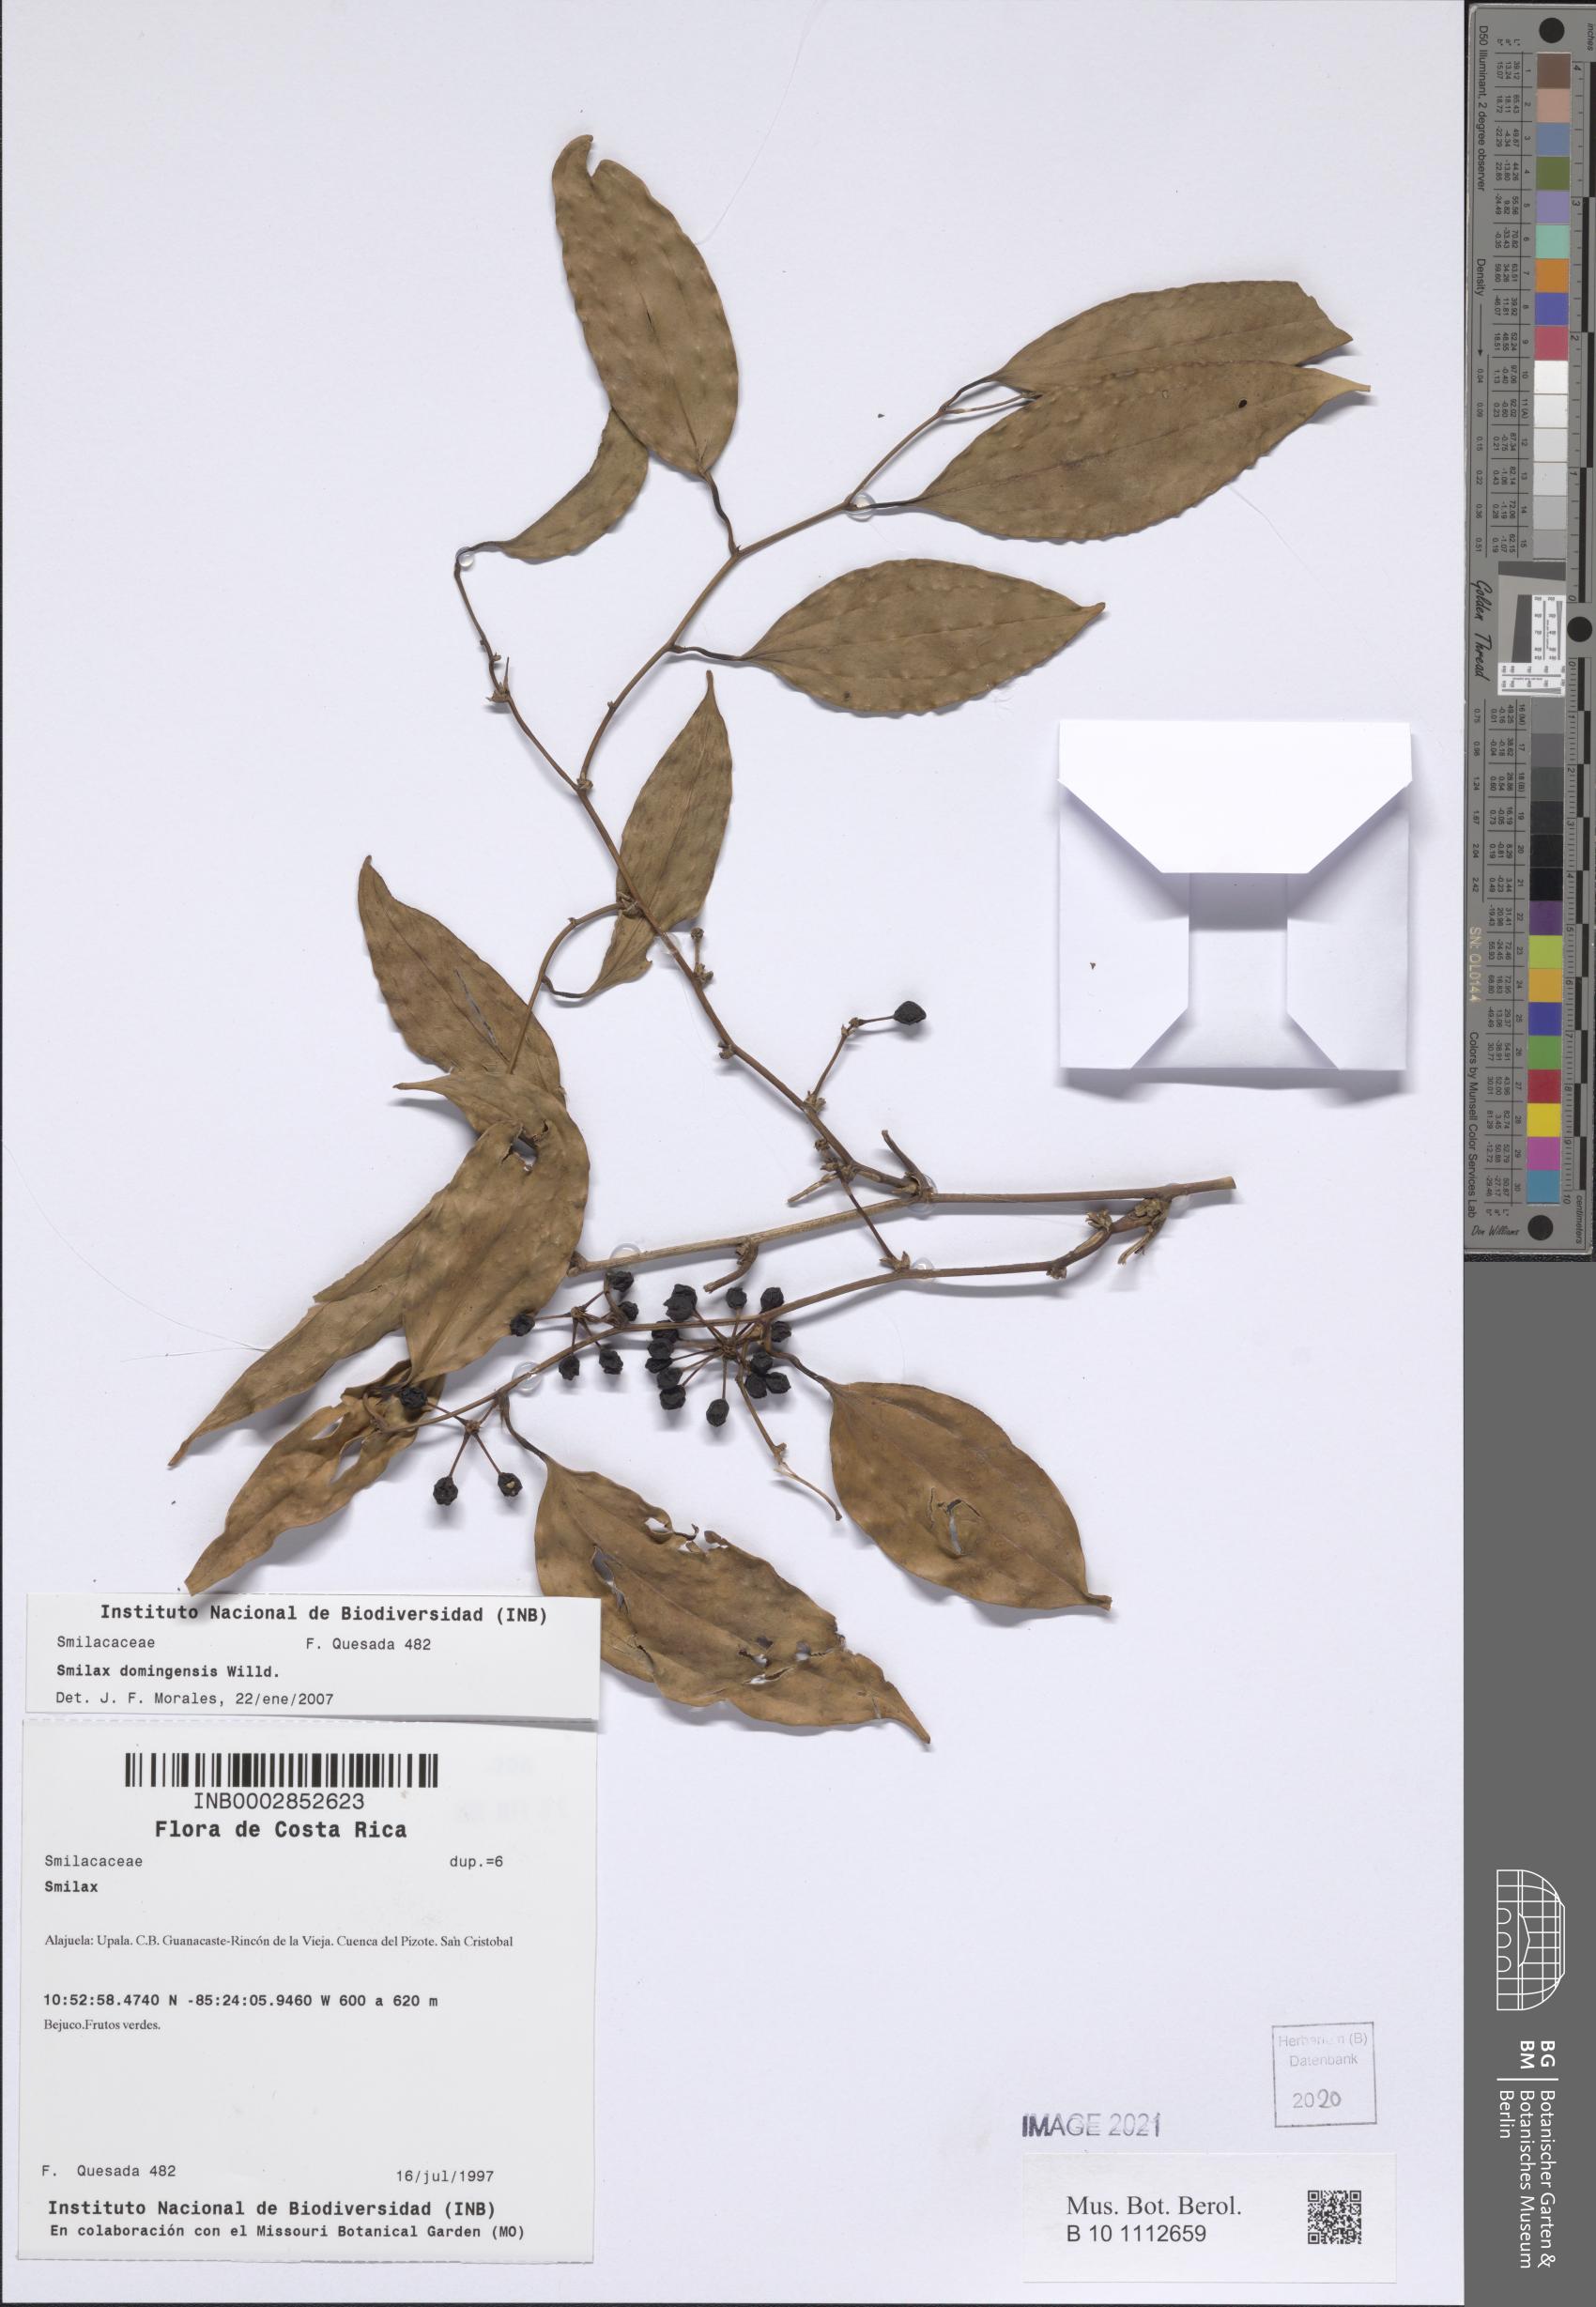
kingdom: Plantae
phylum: Tracheophyta
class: Liliopsida
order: Liliales
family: Smilacaceae
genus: Smilax
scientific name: Smilax domingensis
